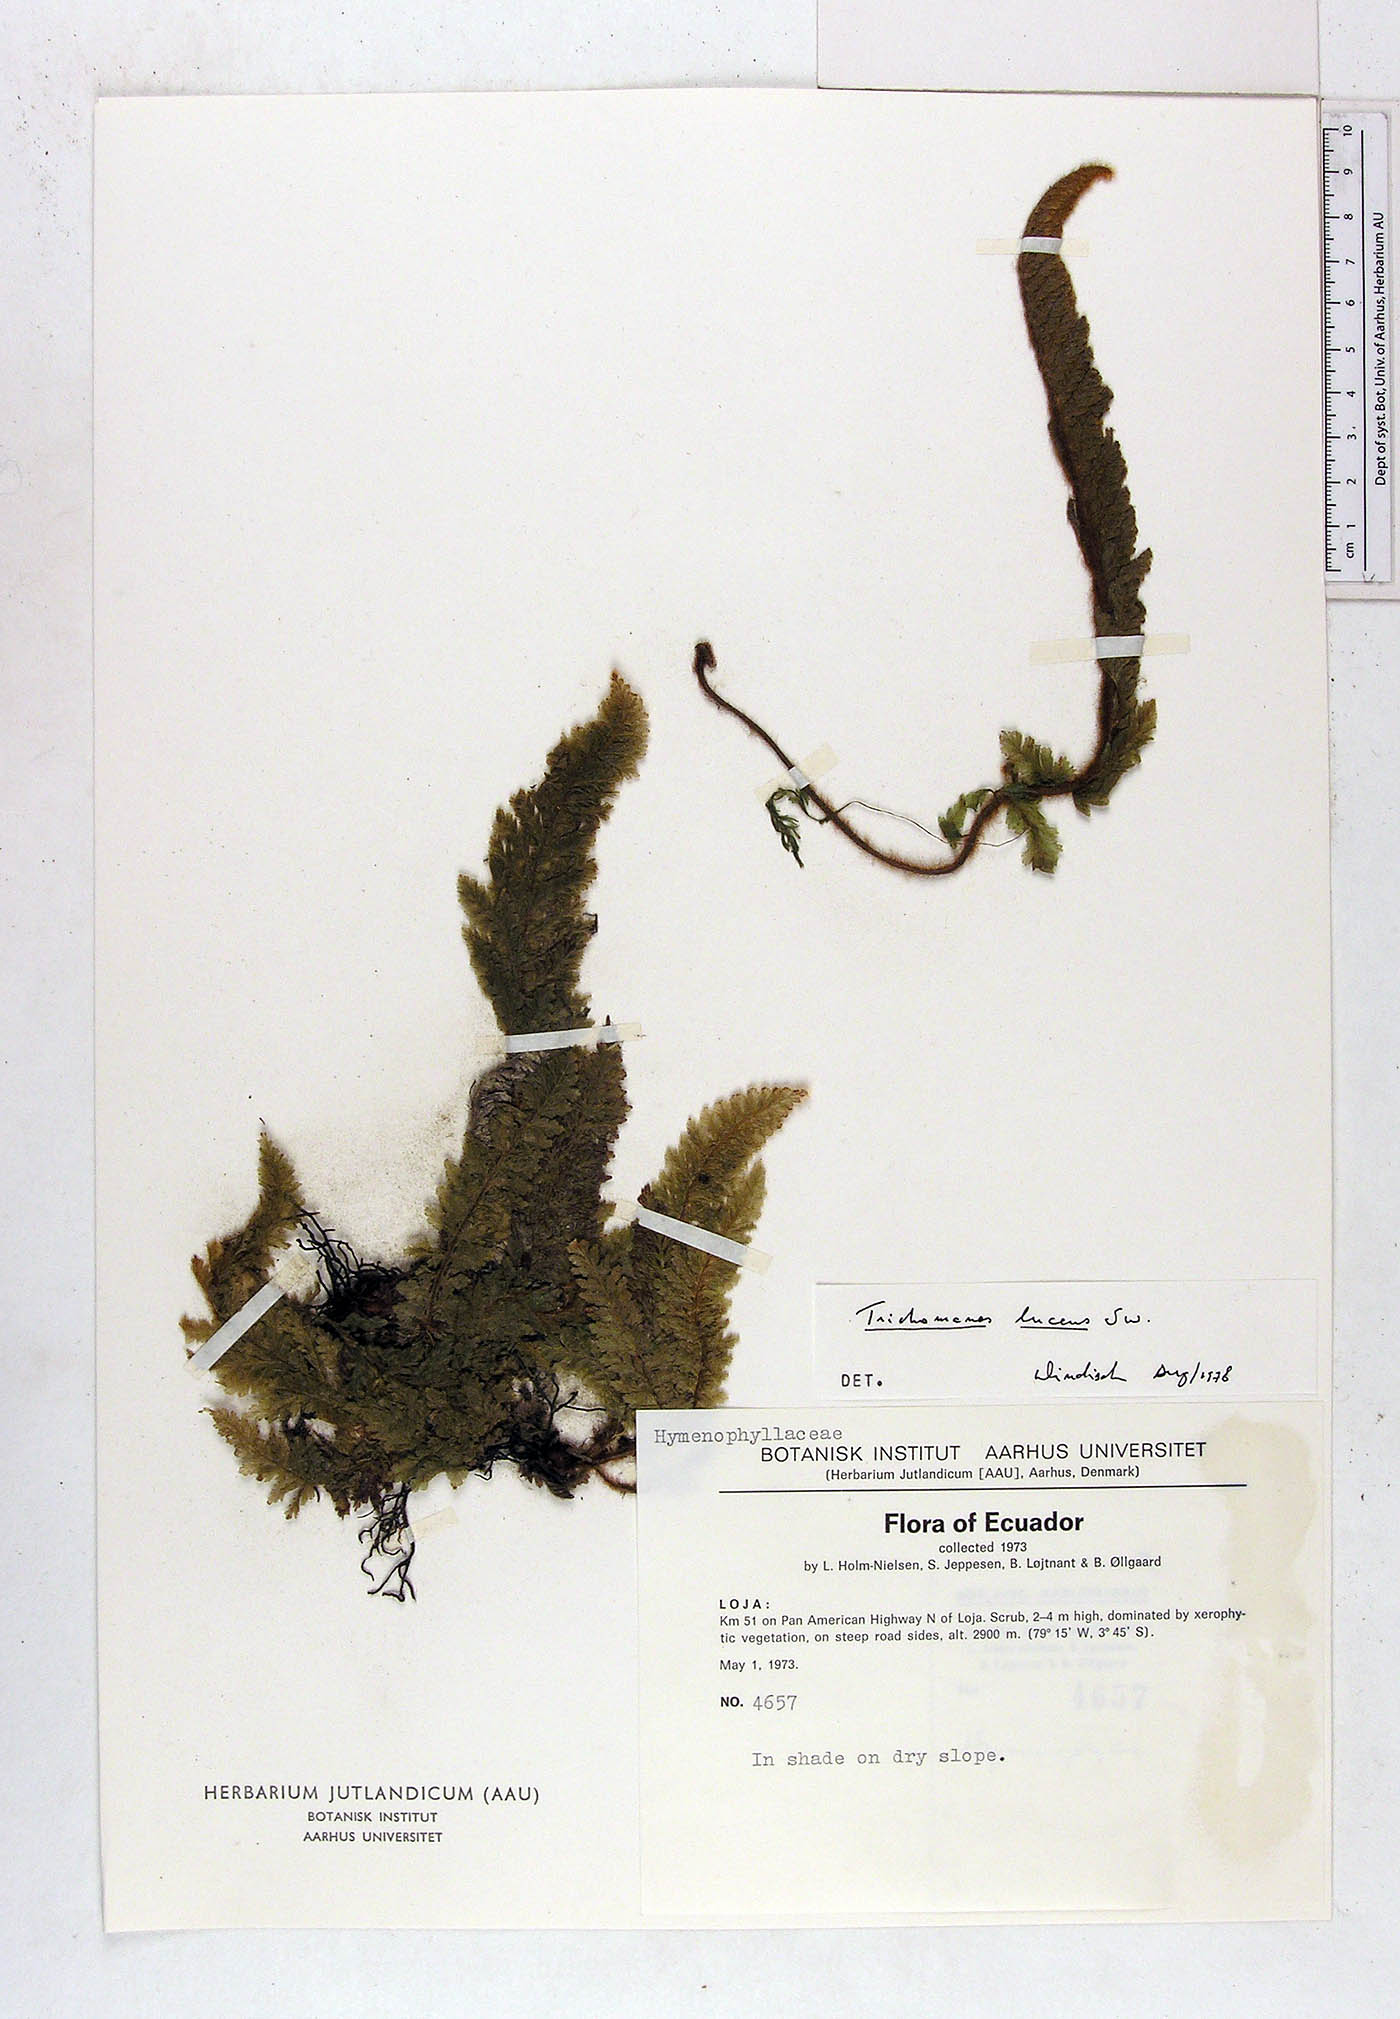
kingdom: Plantae
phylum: Tracheophyta
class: Polypodiopsida
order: Hymenophyllales
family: Hymenophyllaceae
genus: Trichomanes
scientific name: Trichomanes lucens
